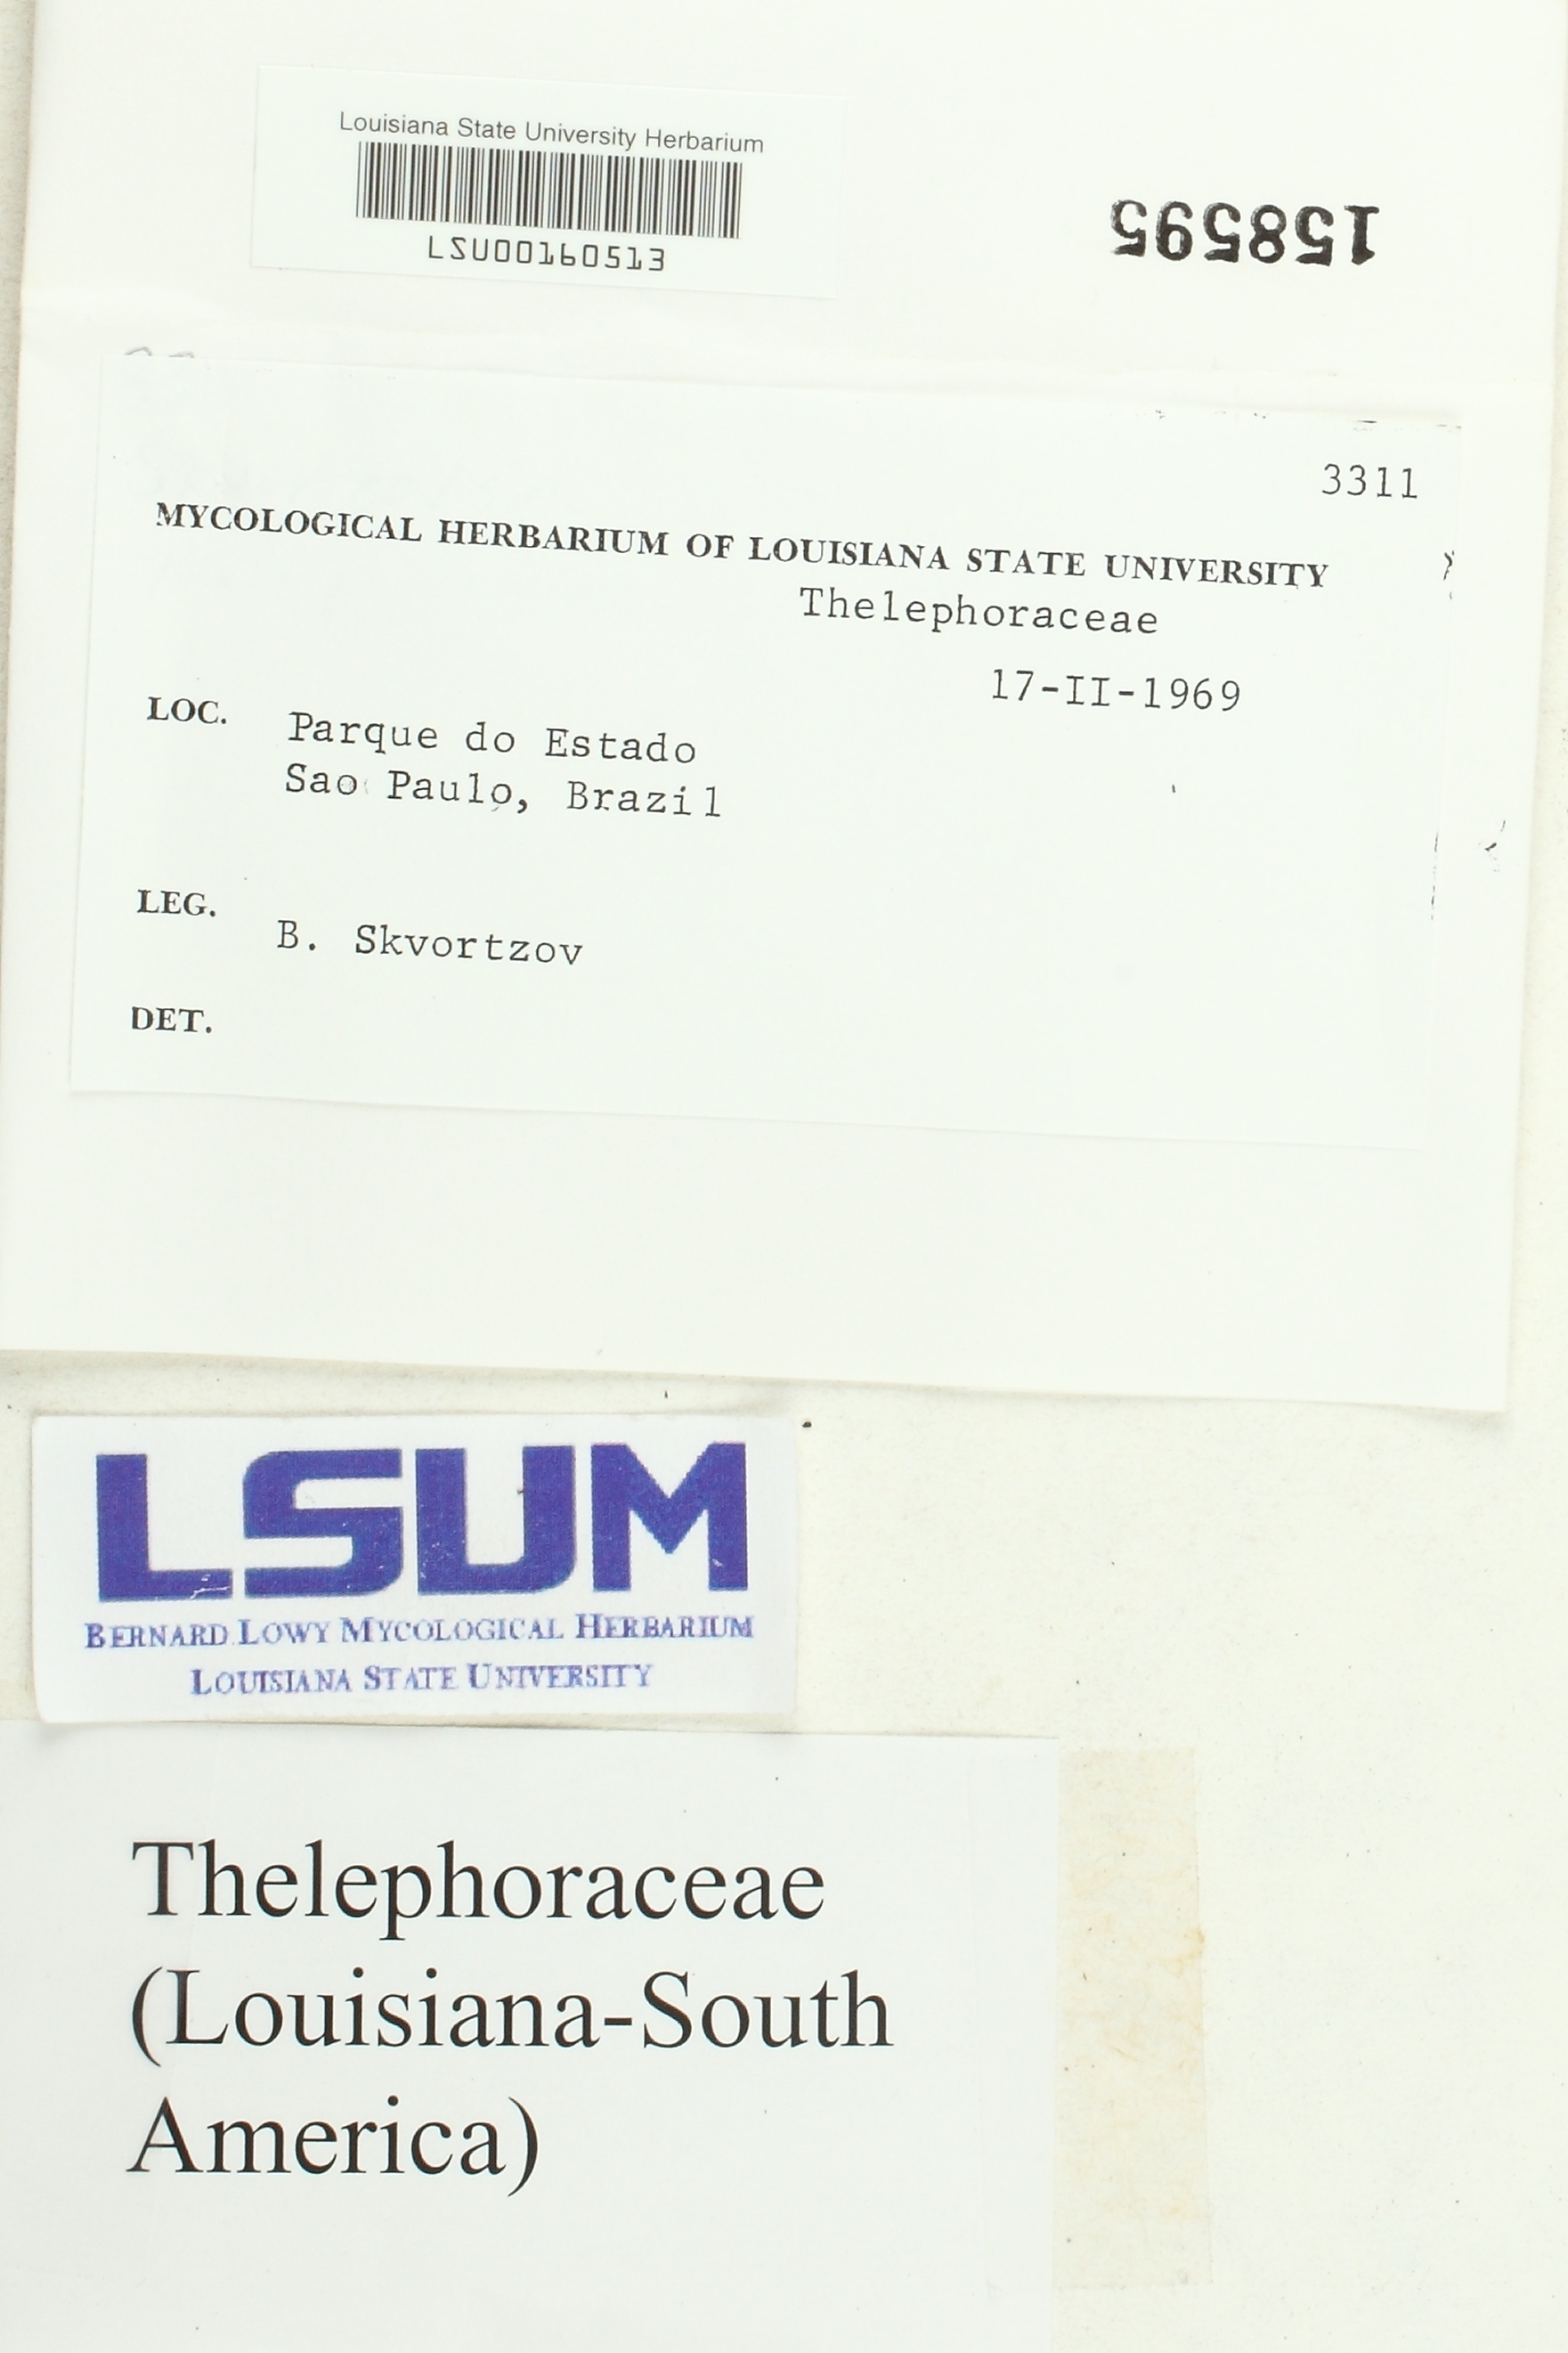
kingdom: Fungi
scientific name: Fungi
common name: Fungi
